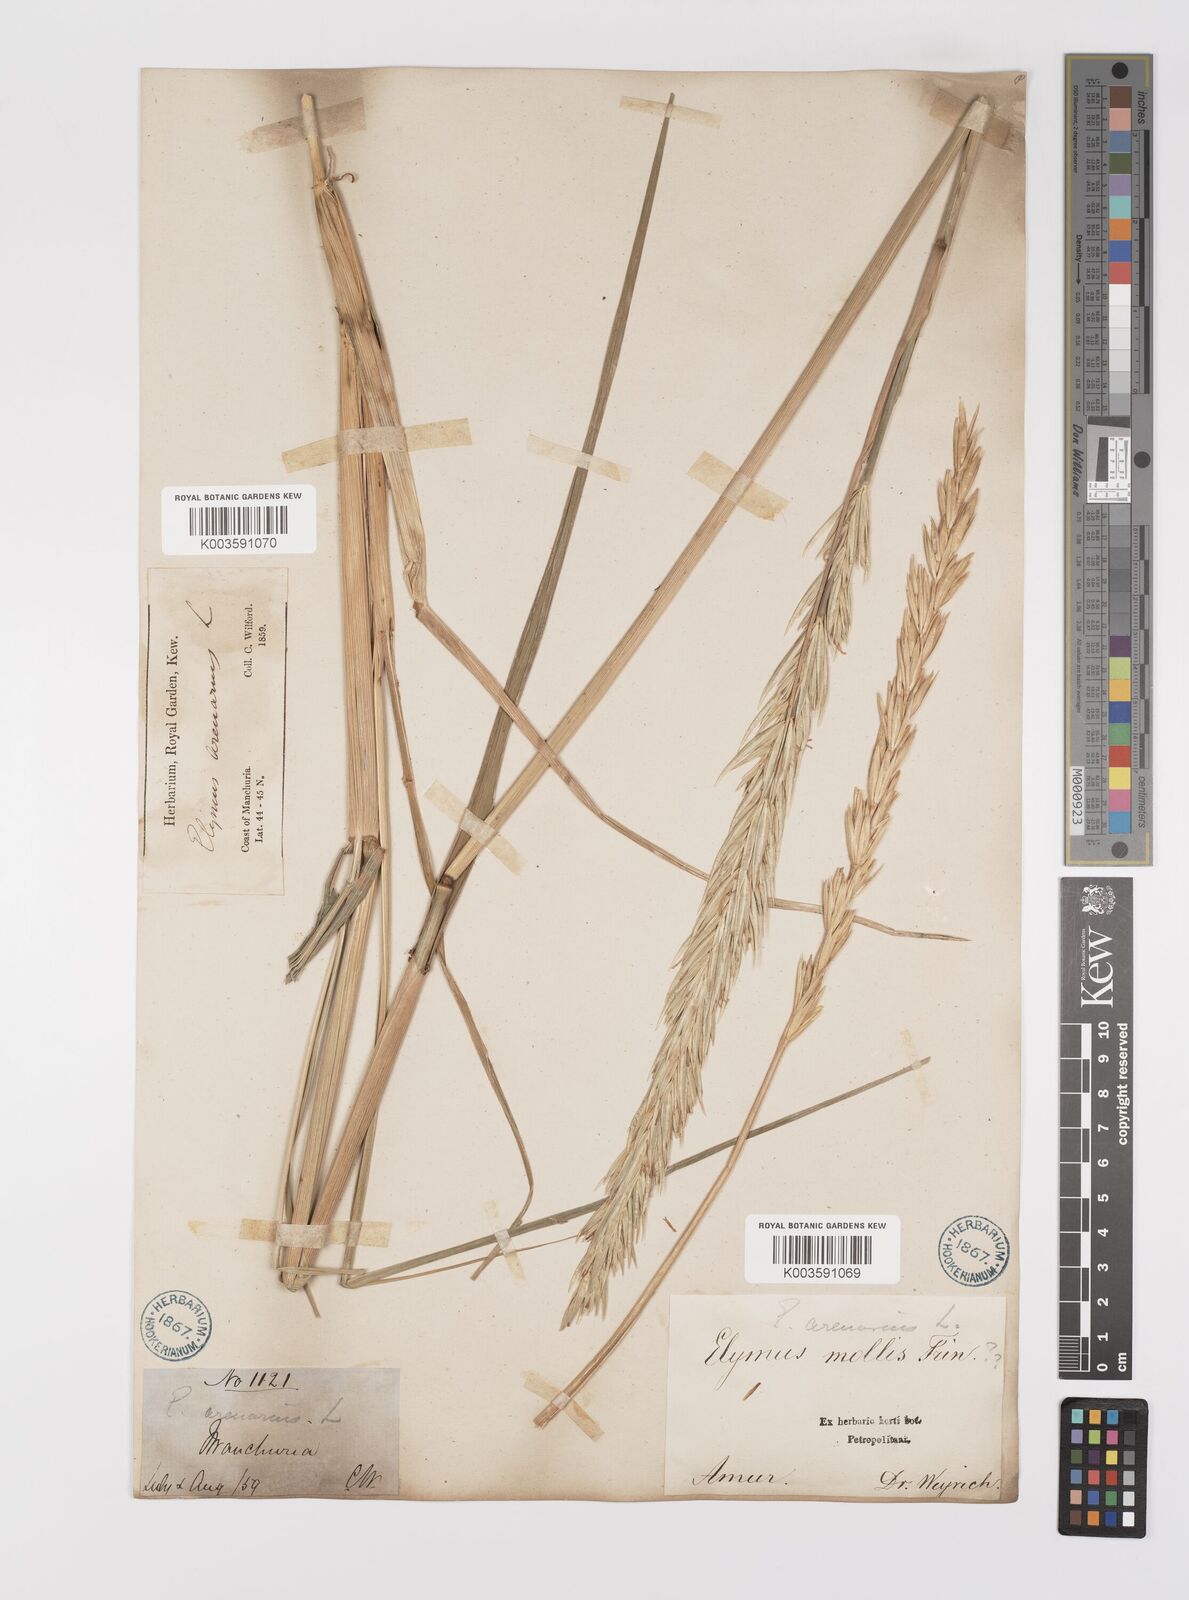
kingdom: Plantae
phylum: Tracheophyta
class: Liliopsida
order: Poales
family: Poaceae
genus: Leymus
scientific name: Leymus mollis
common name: American dune grass
